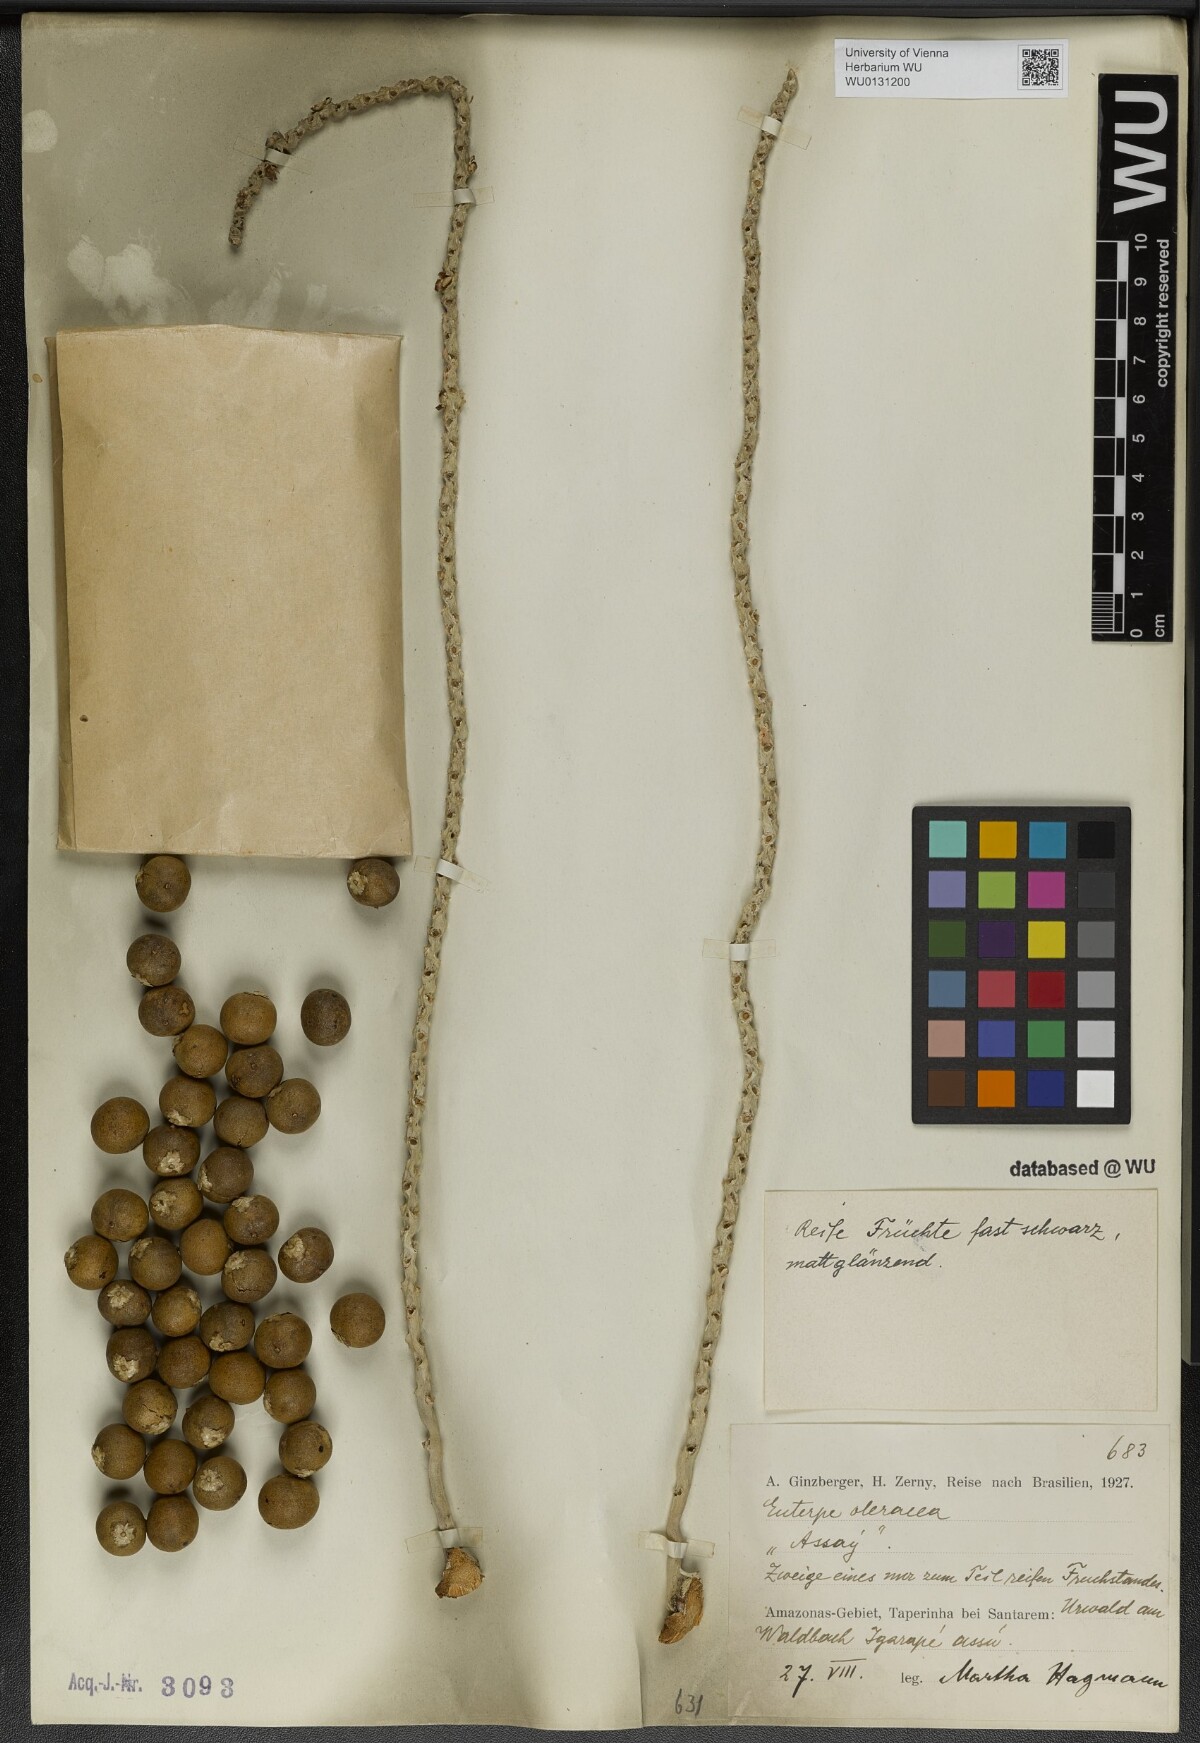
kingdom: Plantae
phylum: Tracheophyta
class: Liliopsida
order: Arecales
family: Arecaceae
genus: Euterpe
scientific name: Euterpe oleracea
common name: Assai palm
